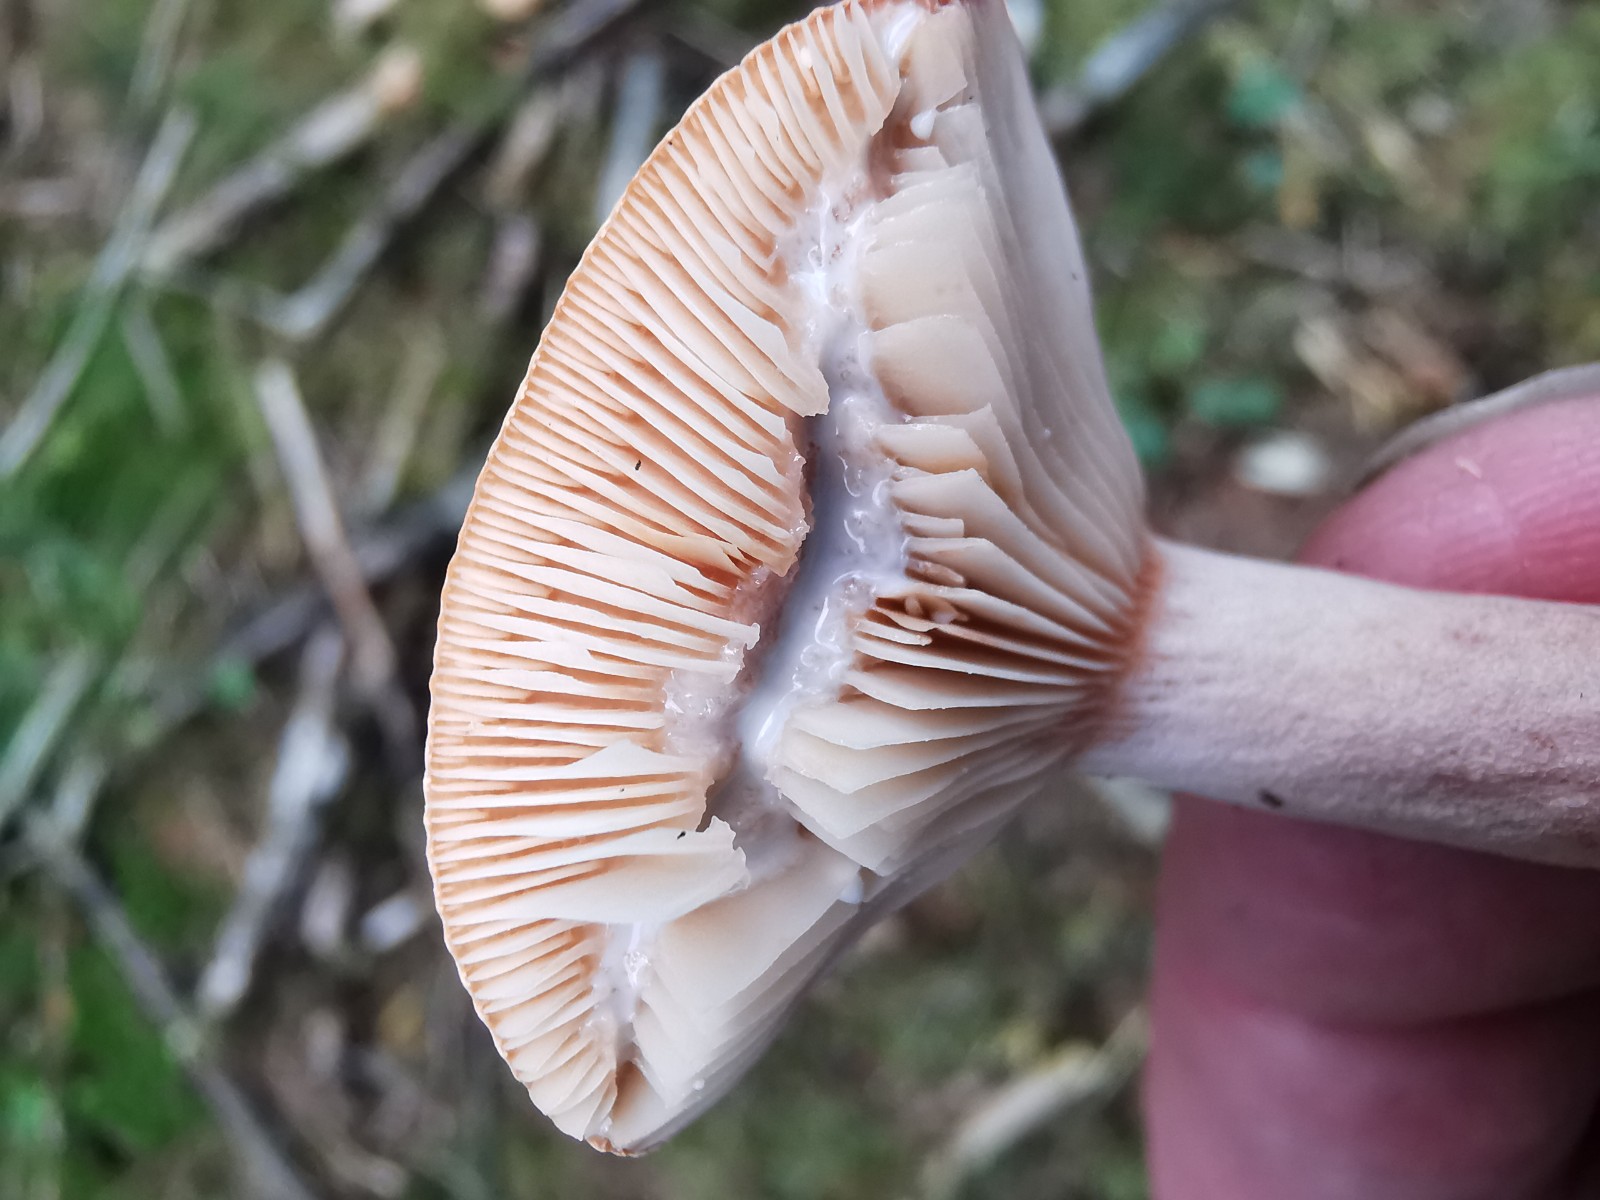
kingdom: Fungi
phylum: Basidiomycota
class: Agaricomycetes
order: Russulales
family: Russulaceae
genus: Lactarius
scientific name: Lactarius rufus
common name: rødbrun mælkehat
